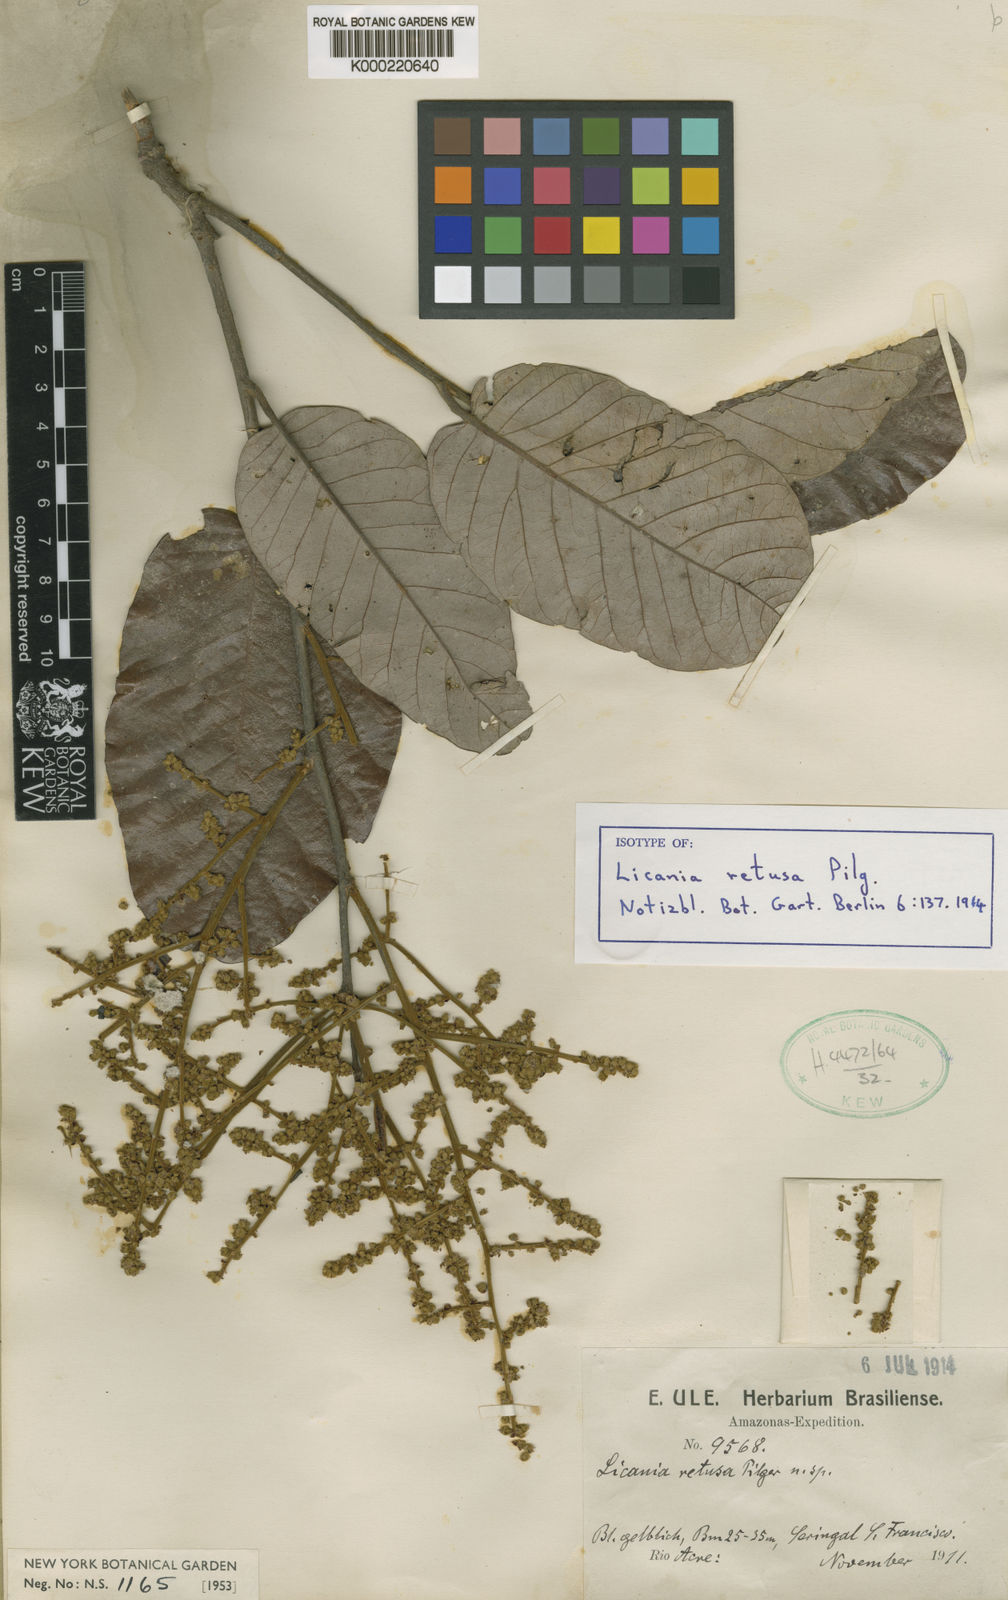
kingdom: Plantae
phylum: Tracheophyta
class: Magnoliopsida
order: Malpighiales
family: Chrysobalanaceae
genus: Microdesmia
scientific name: Microdesmia arborea
